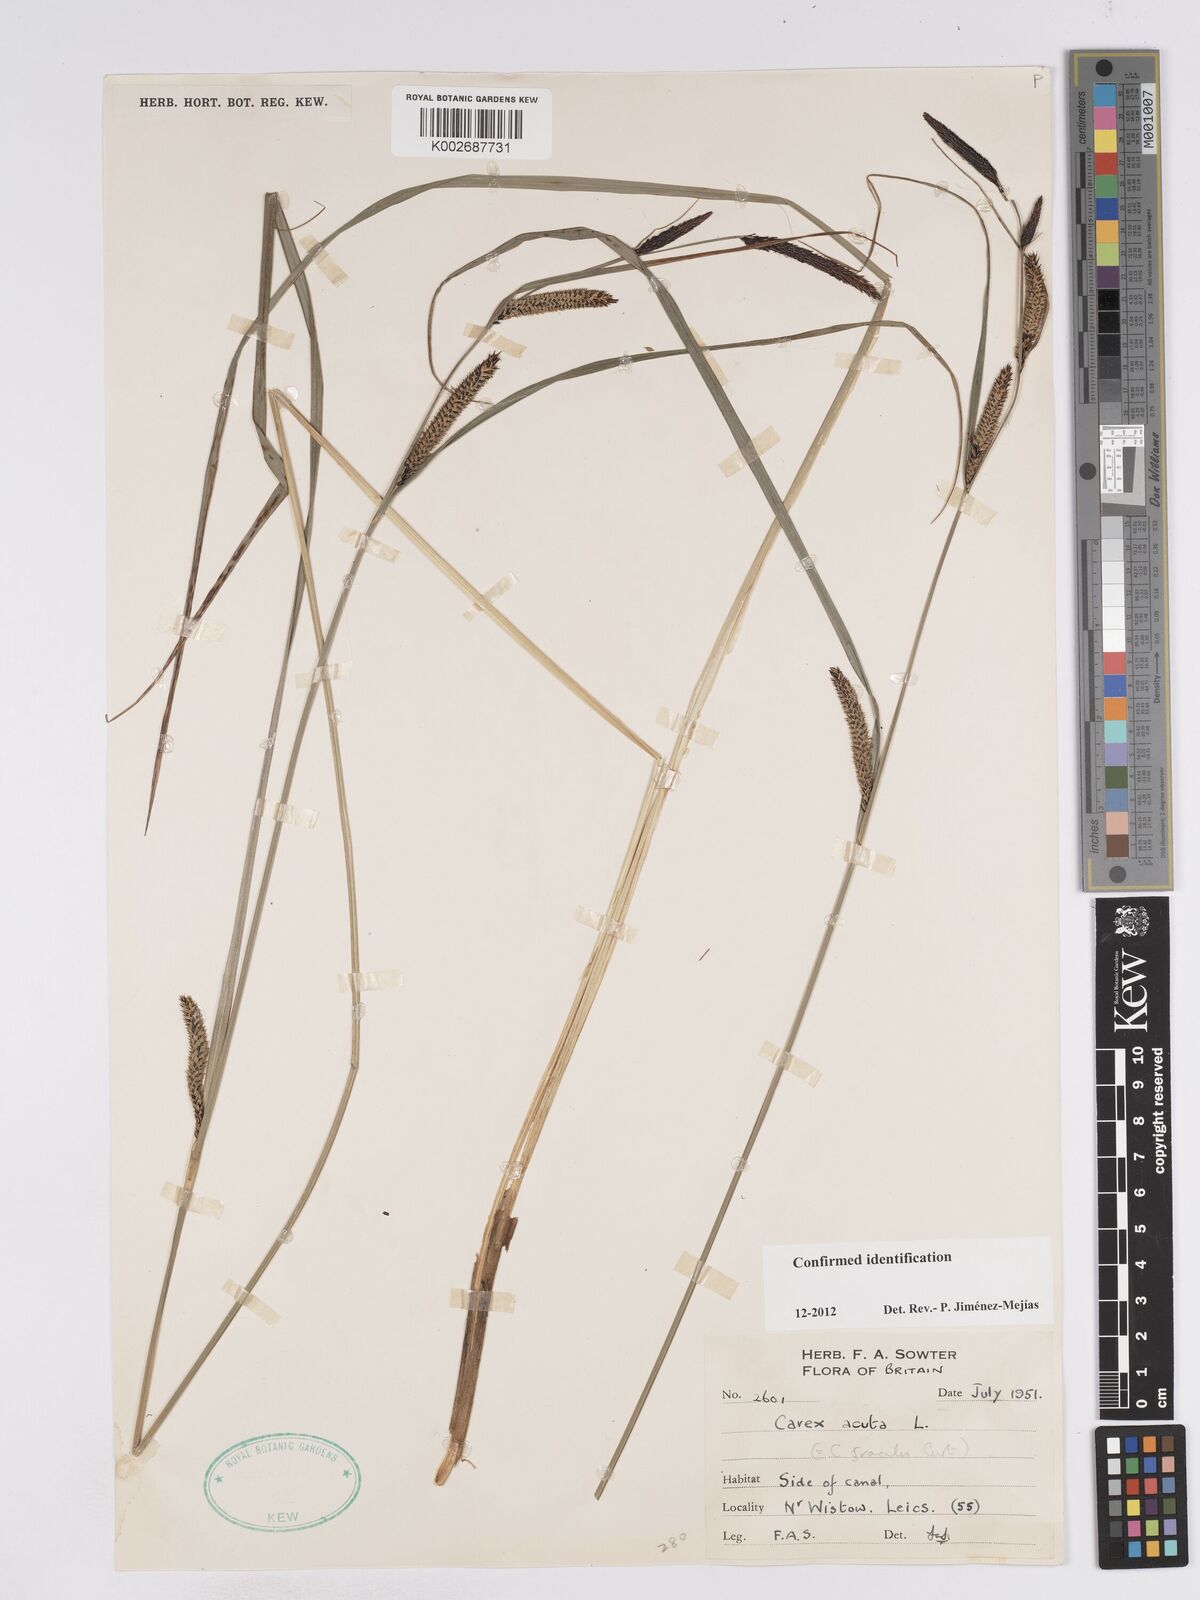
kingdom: Plantae
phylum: Tracheophyta
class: Liliopsida
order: Poales
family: Cyperaceae
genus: Carex
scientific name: Carex acuta
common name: Slender tufted-sedge
